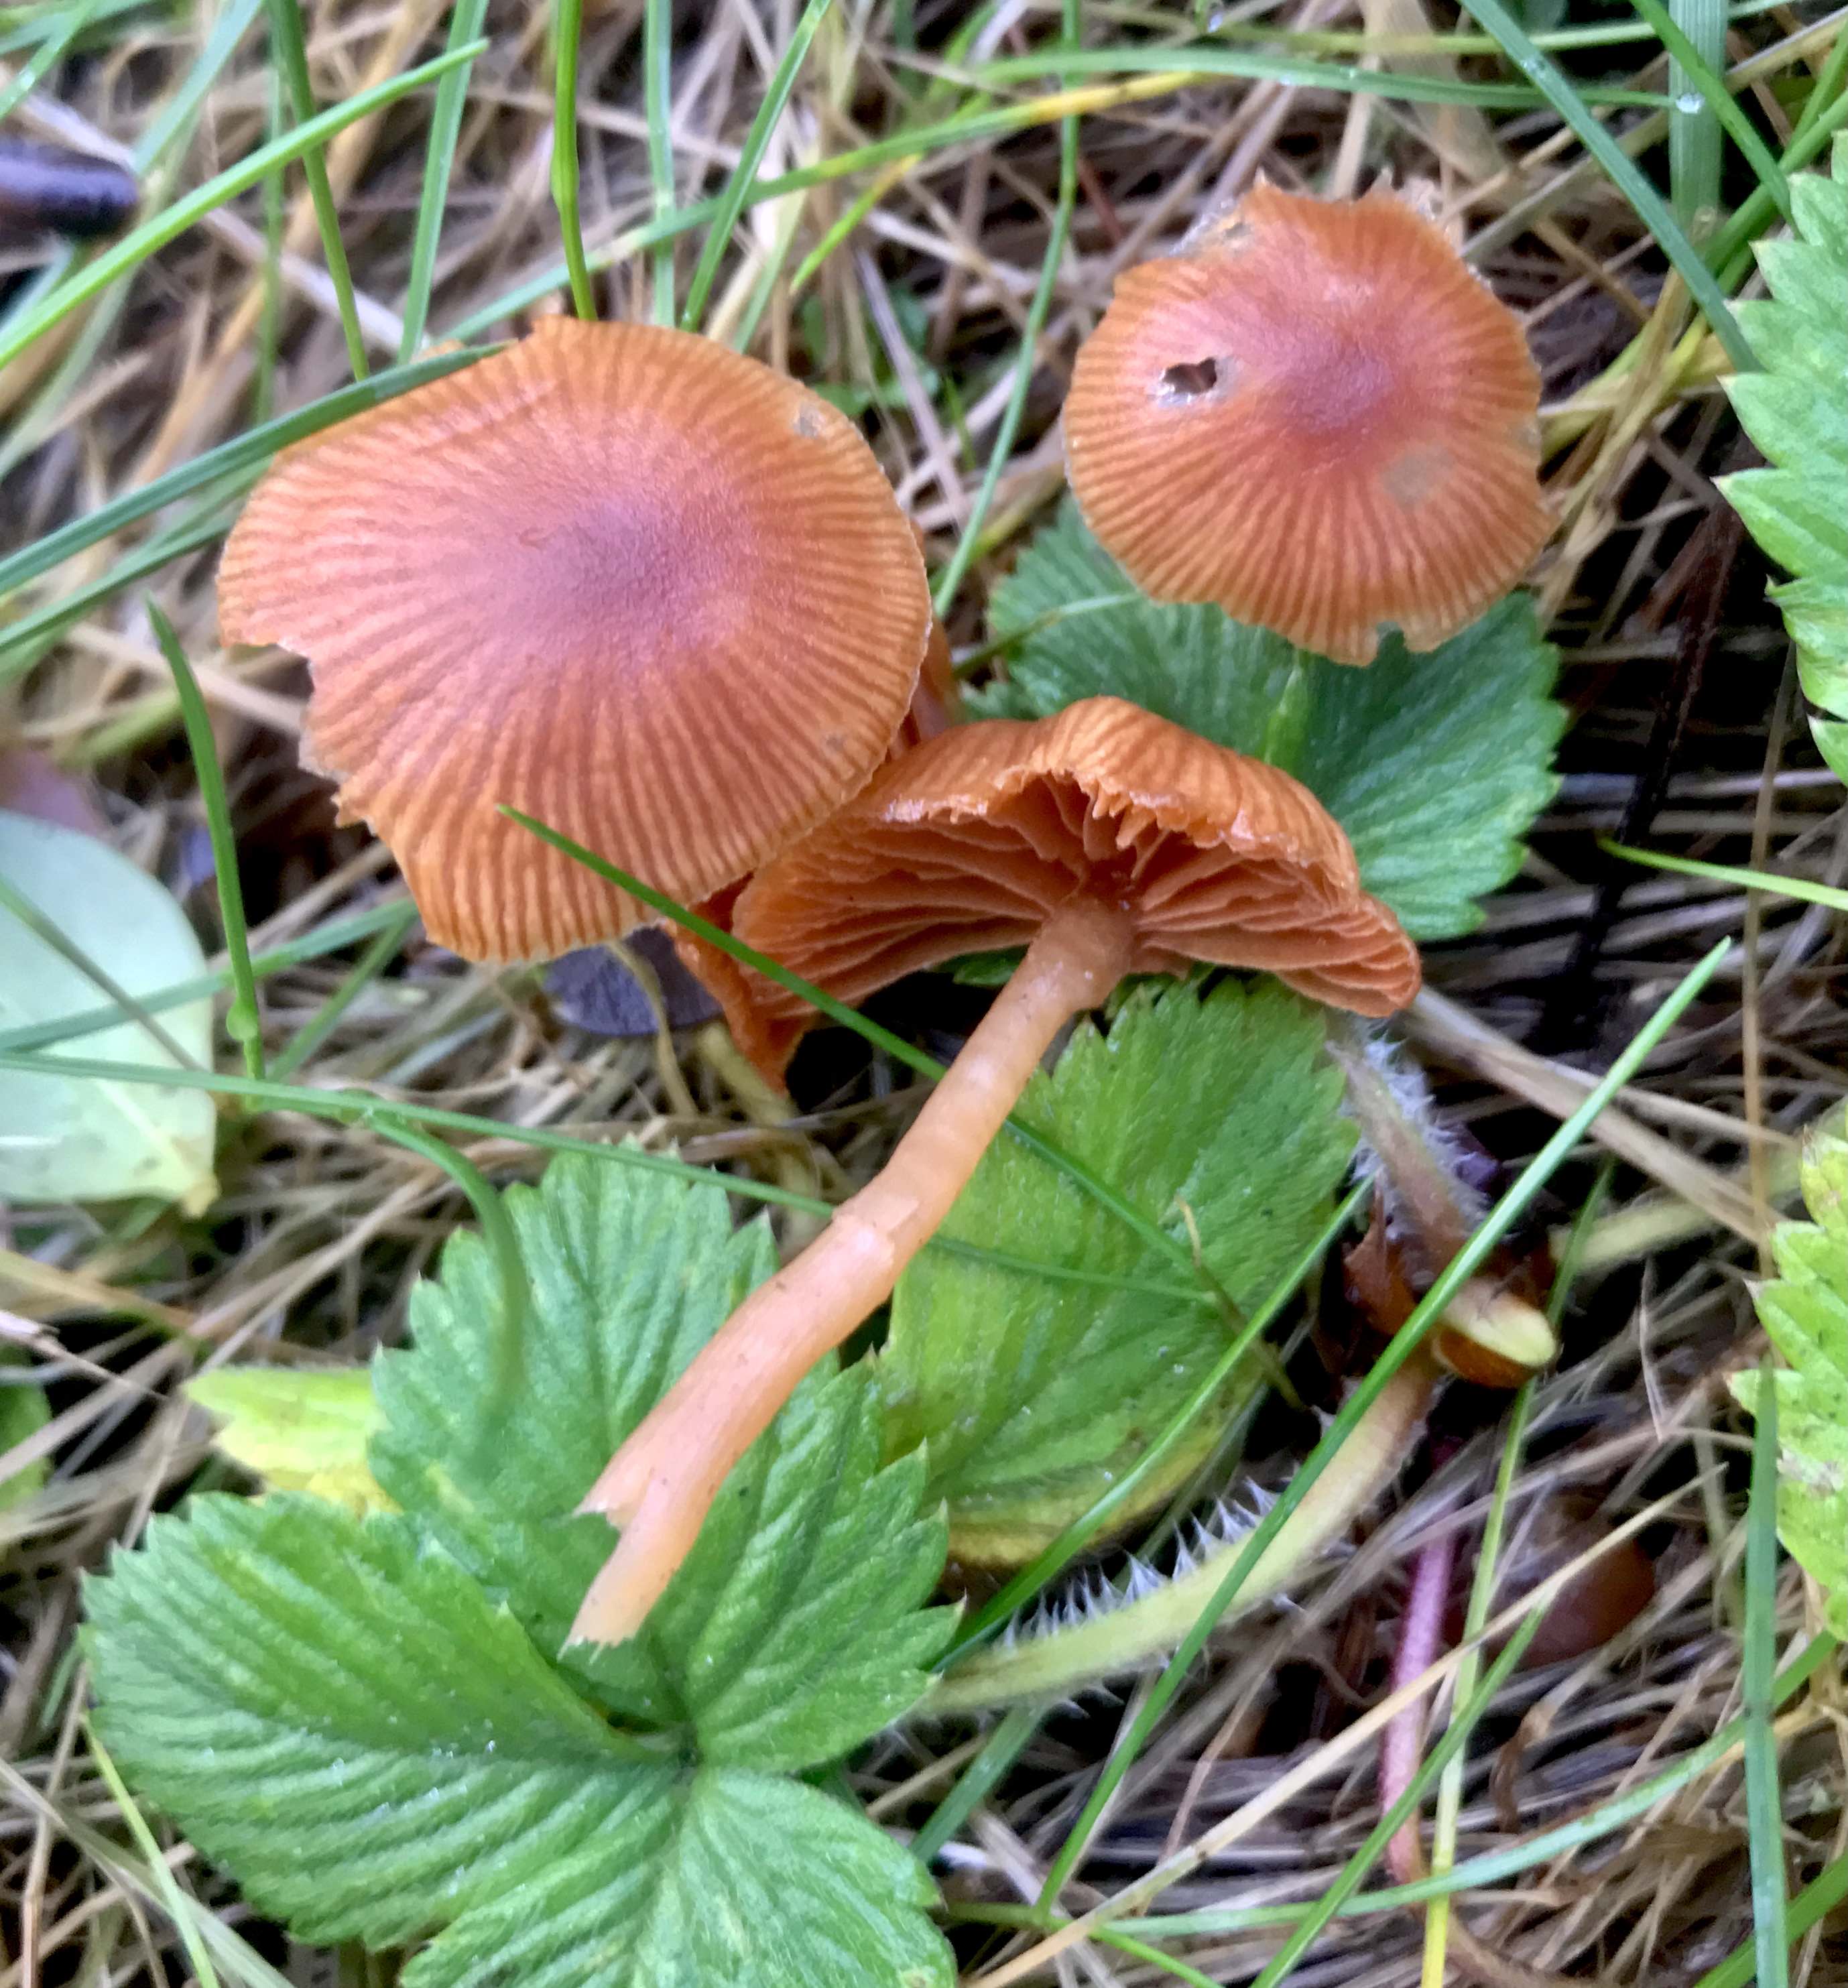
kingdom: Fungi
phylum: Basidiomycota
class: Agaricomycetes
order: Agaricales
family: Tubariaceae
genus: Tubaria
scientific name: Tubaria furfuracea
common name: kliddet fnughat
